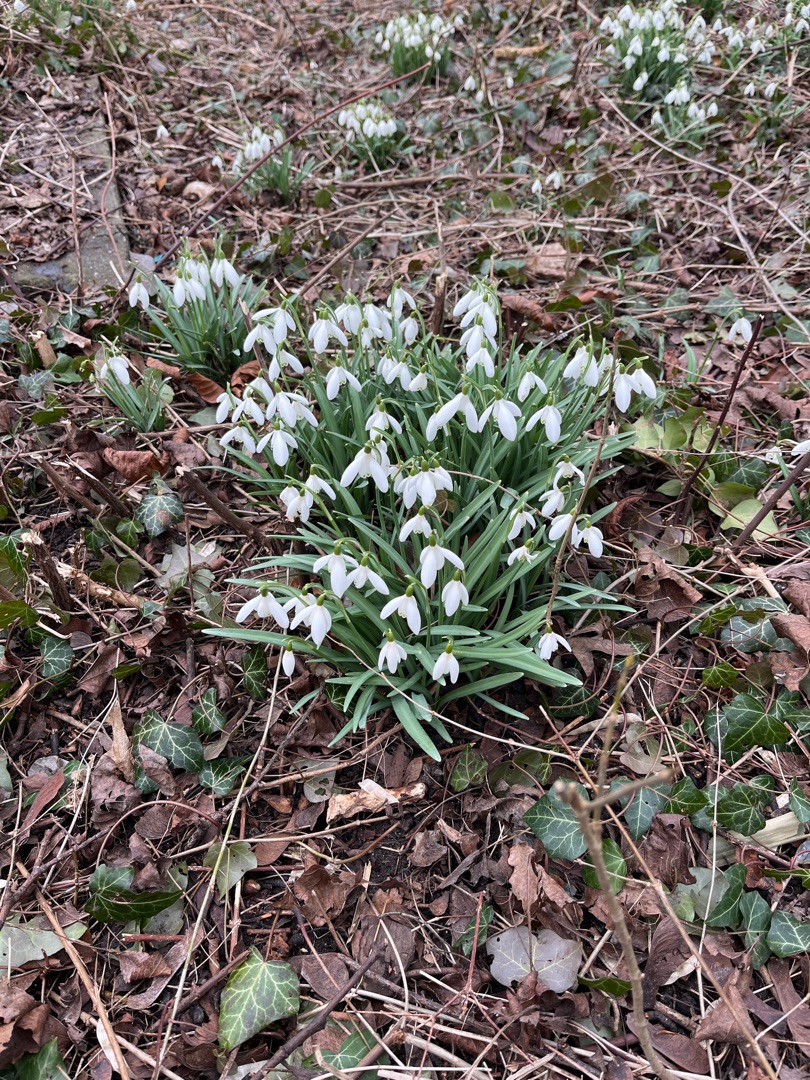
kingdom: Plantae
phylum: Tracheophyta
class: Liliopsida
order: Asparagales
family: Amaryllidaceae
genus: Galanthus
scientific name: Galanthus nivalis
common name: Vintergæk
